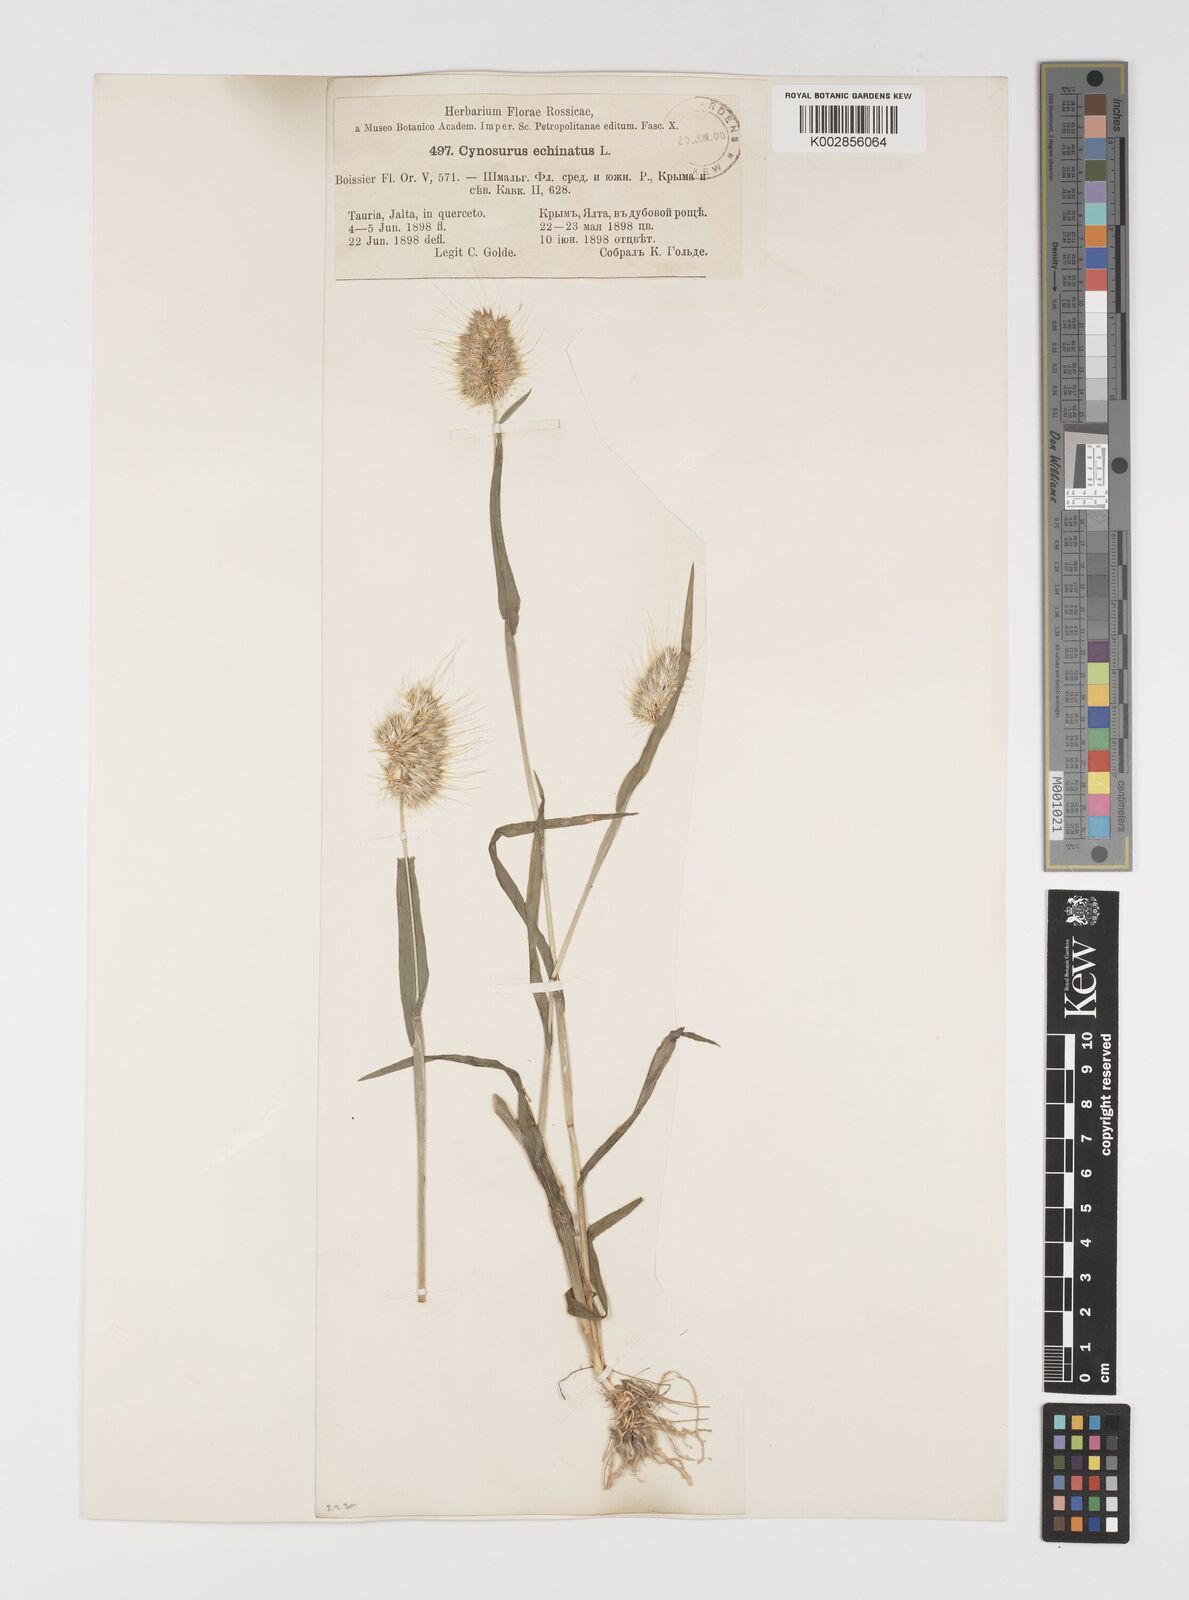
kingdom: Plantae
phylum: Tracheophyta
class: Liliopsida
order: Poales
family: Poaceae
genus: Cynosurus
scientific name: Cynosurus echinatus
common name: Rough dog's-tail
